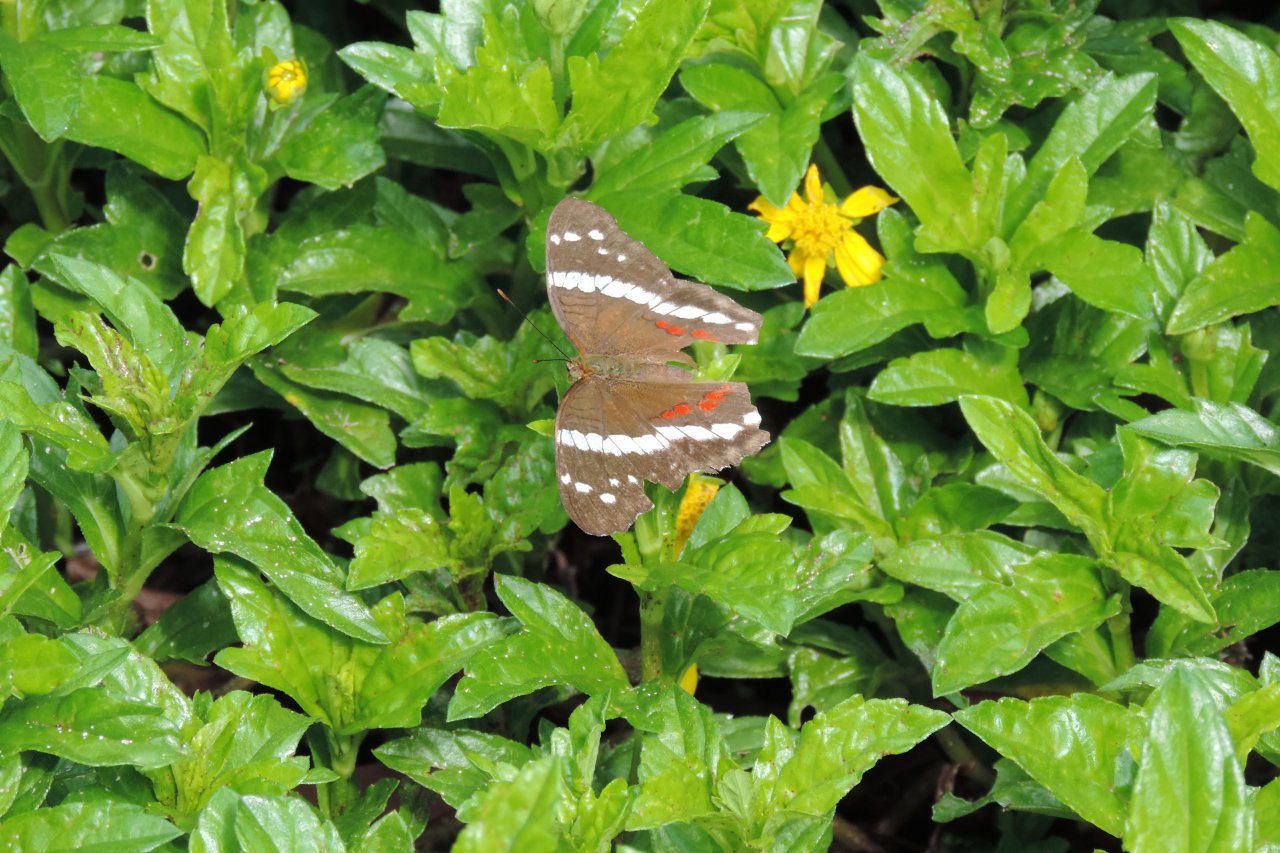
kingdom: Animalia
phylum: Arthropoda
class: Insecta
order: Lepidoptera
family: Nymphalidae
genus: Anartia
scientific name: Anartia fatima
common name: Banded Peacock
